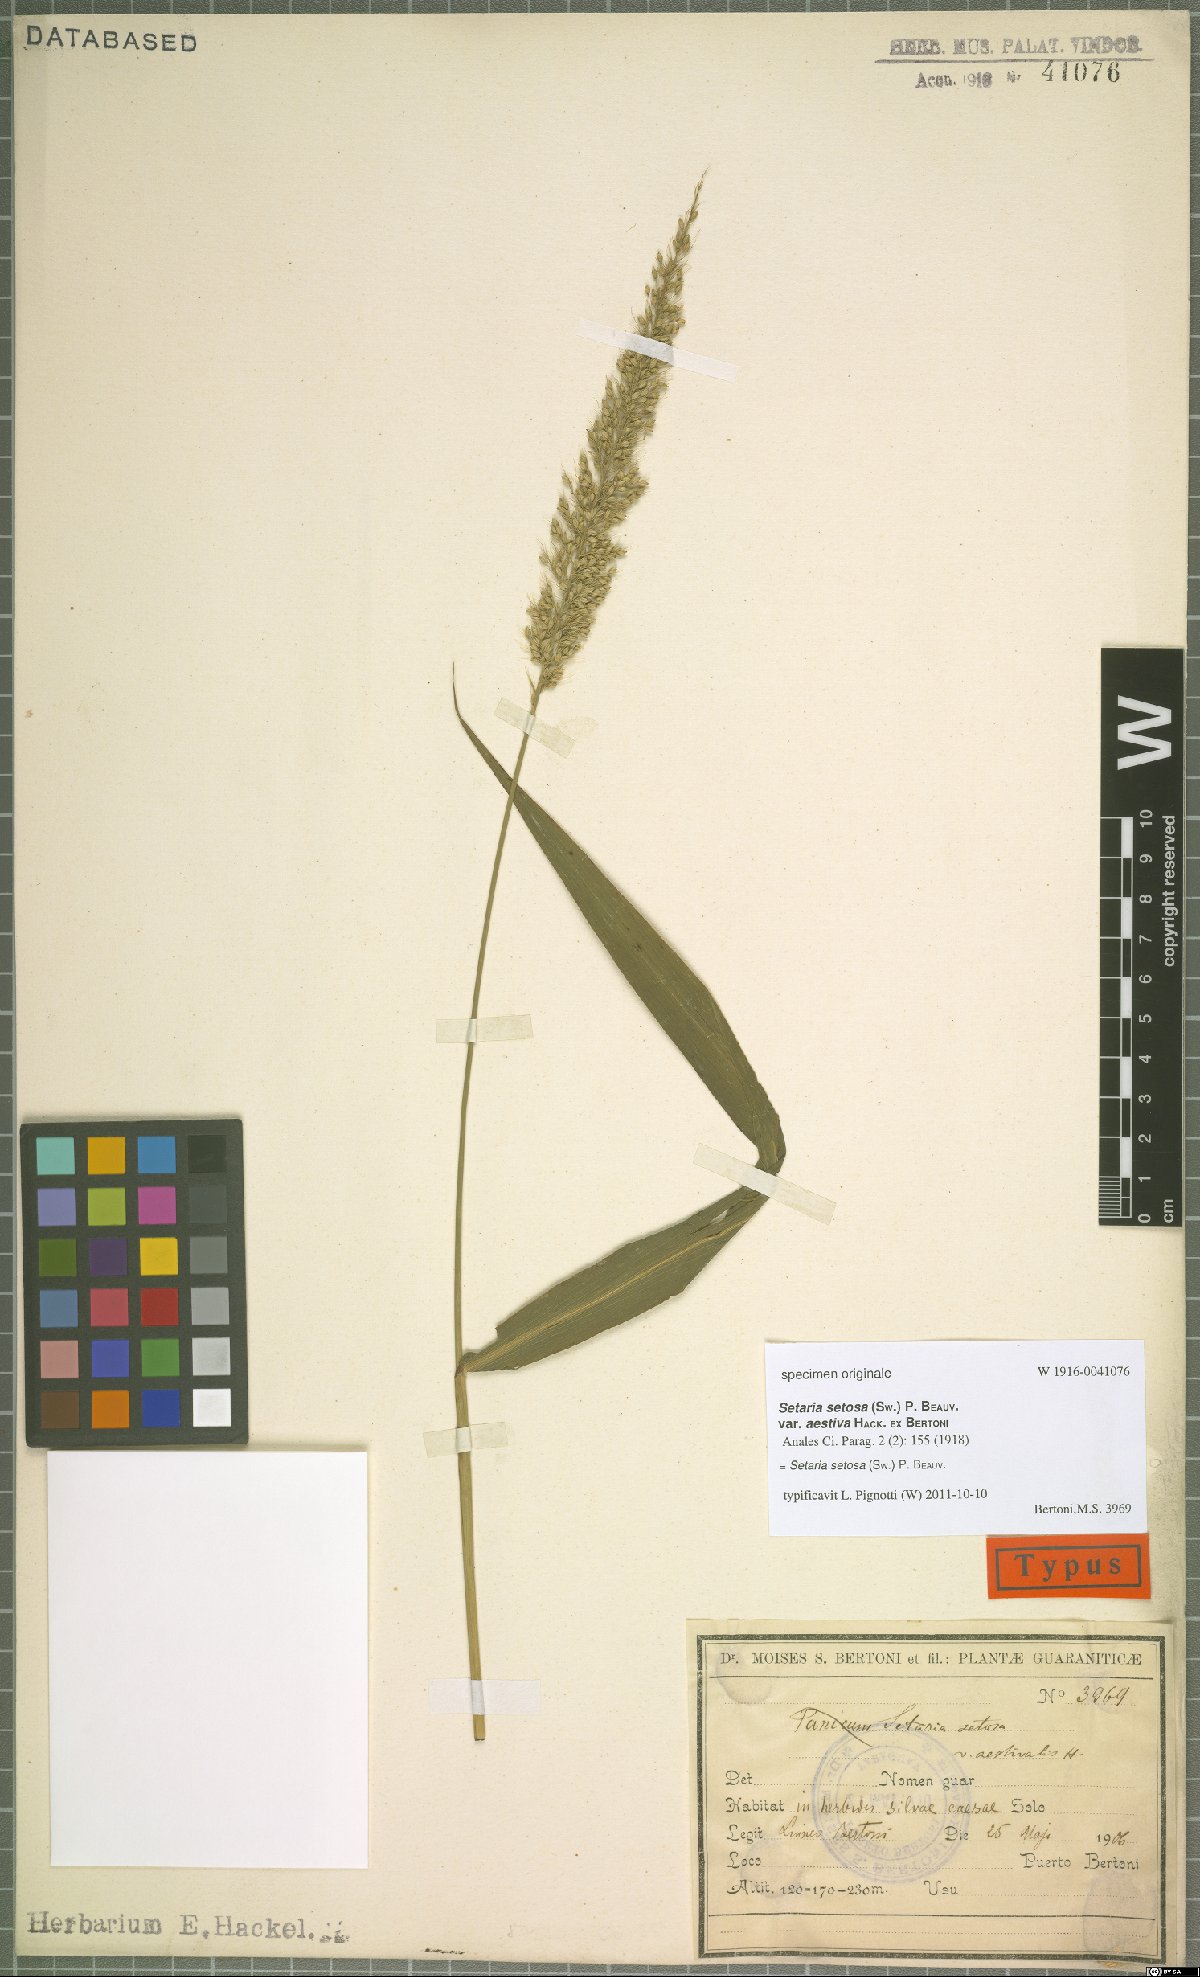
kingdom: Plantae
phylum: Tracheophyta
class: Liliopsida
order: Poales
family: Poaceae
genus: Setaria
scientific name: Setaria setosa
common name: West indies bristle grass
